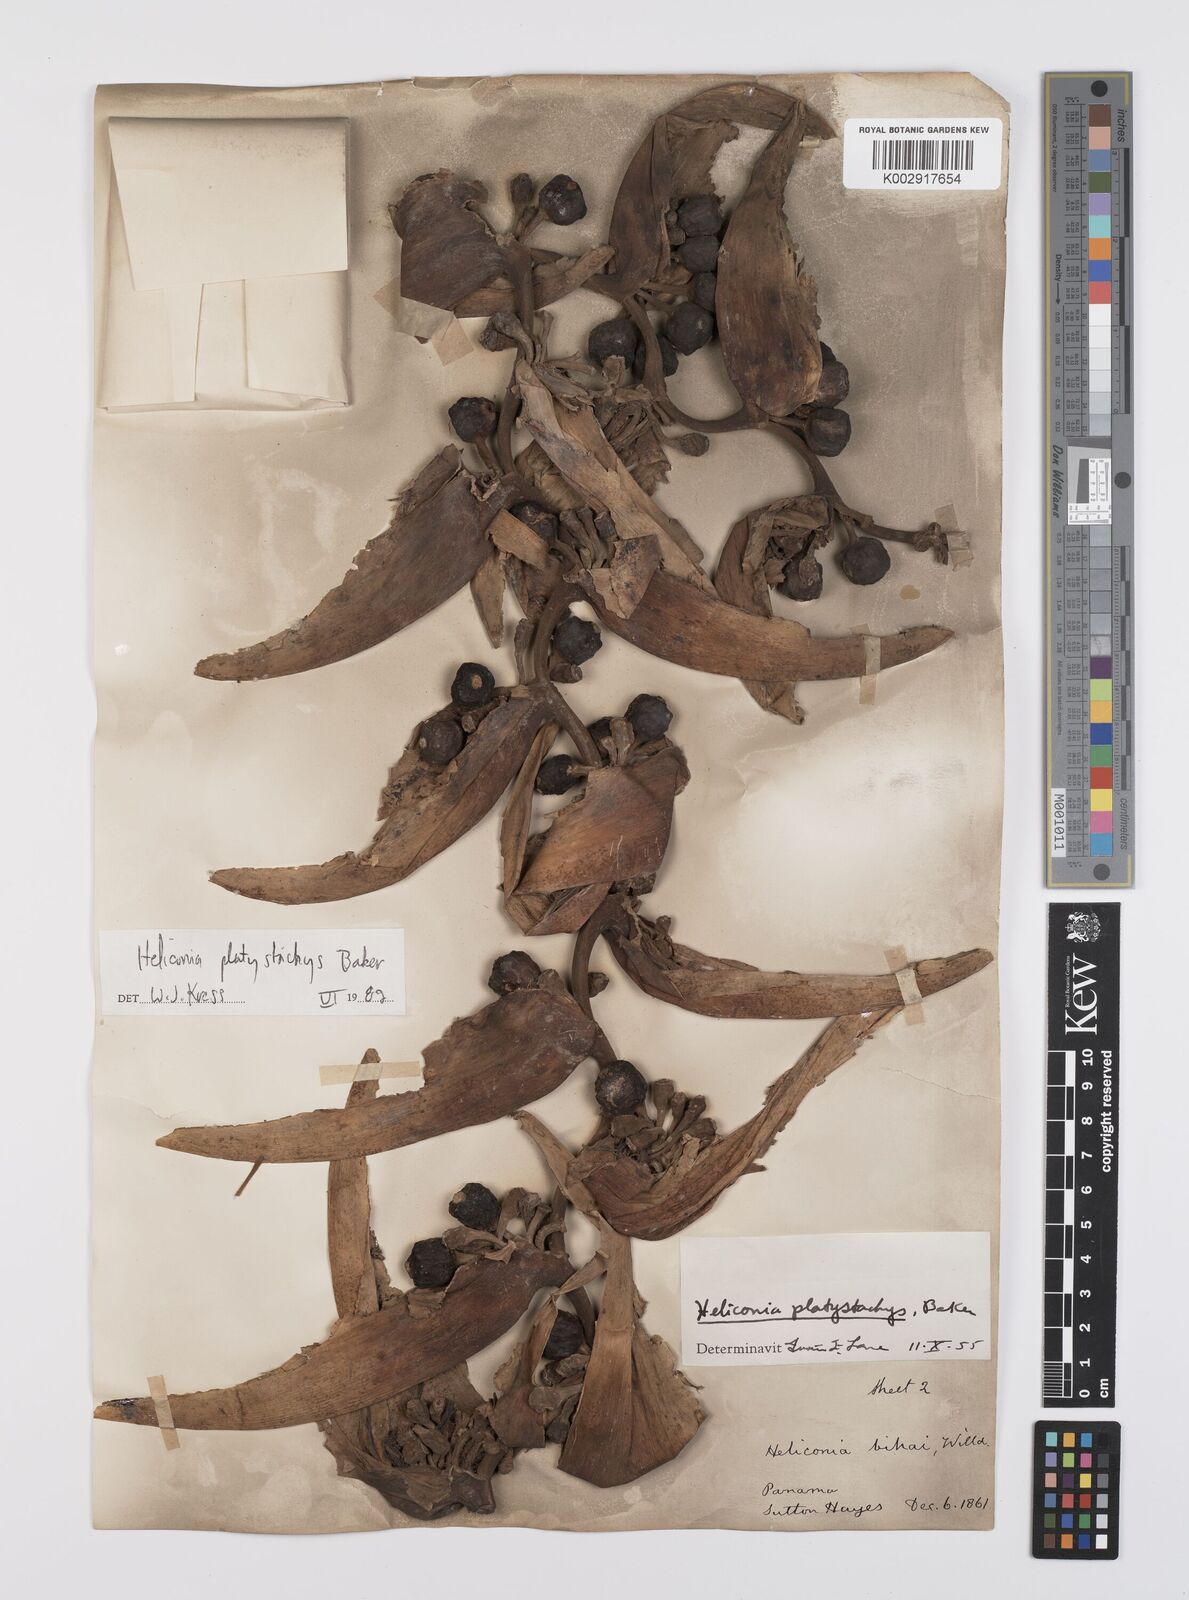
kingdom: Plantae
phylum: Tracheophyta
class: Liliopsida
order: Zingiberales
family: Heliconiaceae
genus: Heliconia
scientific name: Heliconia platystachys
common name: False bird of paradise
